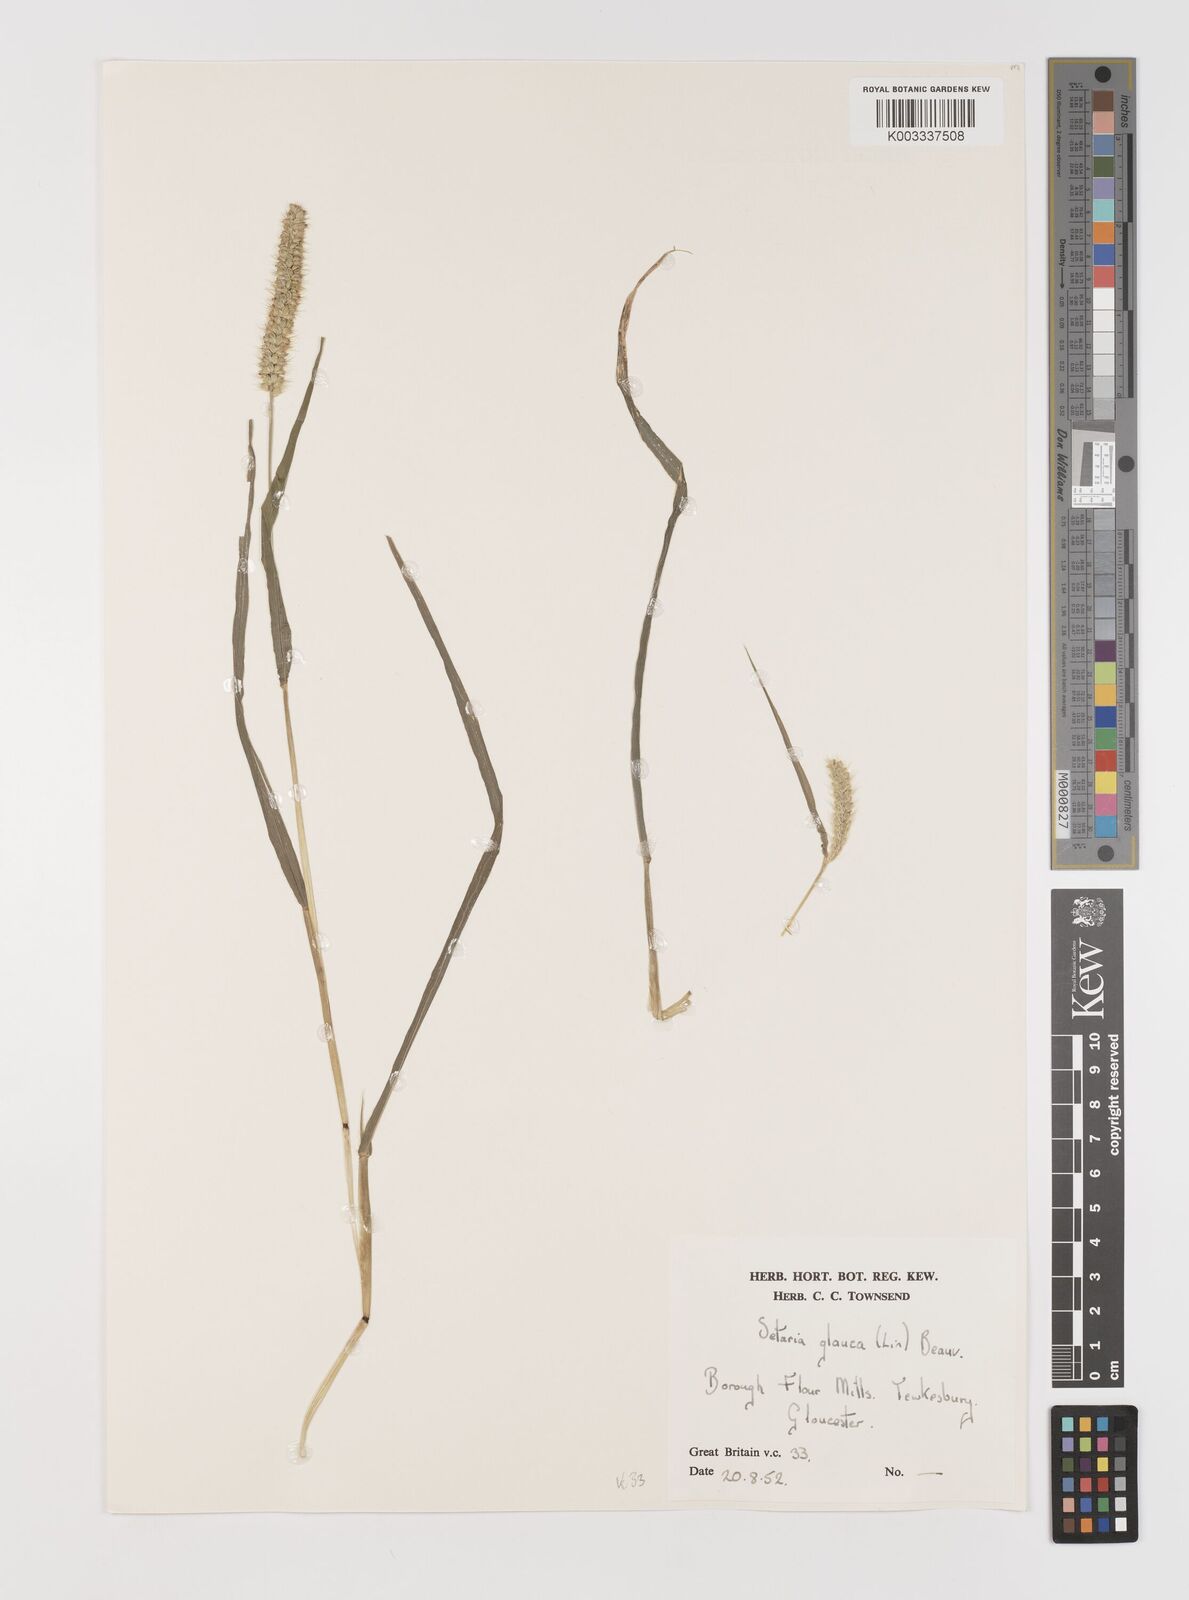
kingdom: Plantae
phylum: Tracheophyta
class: Liliopsida
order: Poales
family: Poaceae
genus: Setaria
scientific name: Setaria pumila
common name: Yellow bristle-grass
